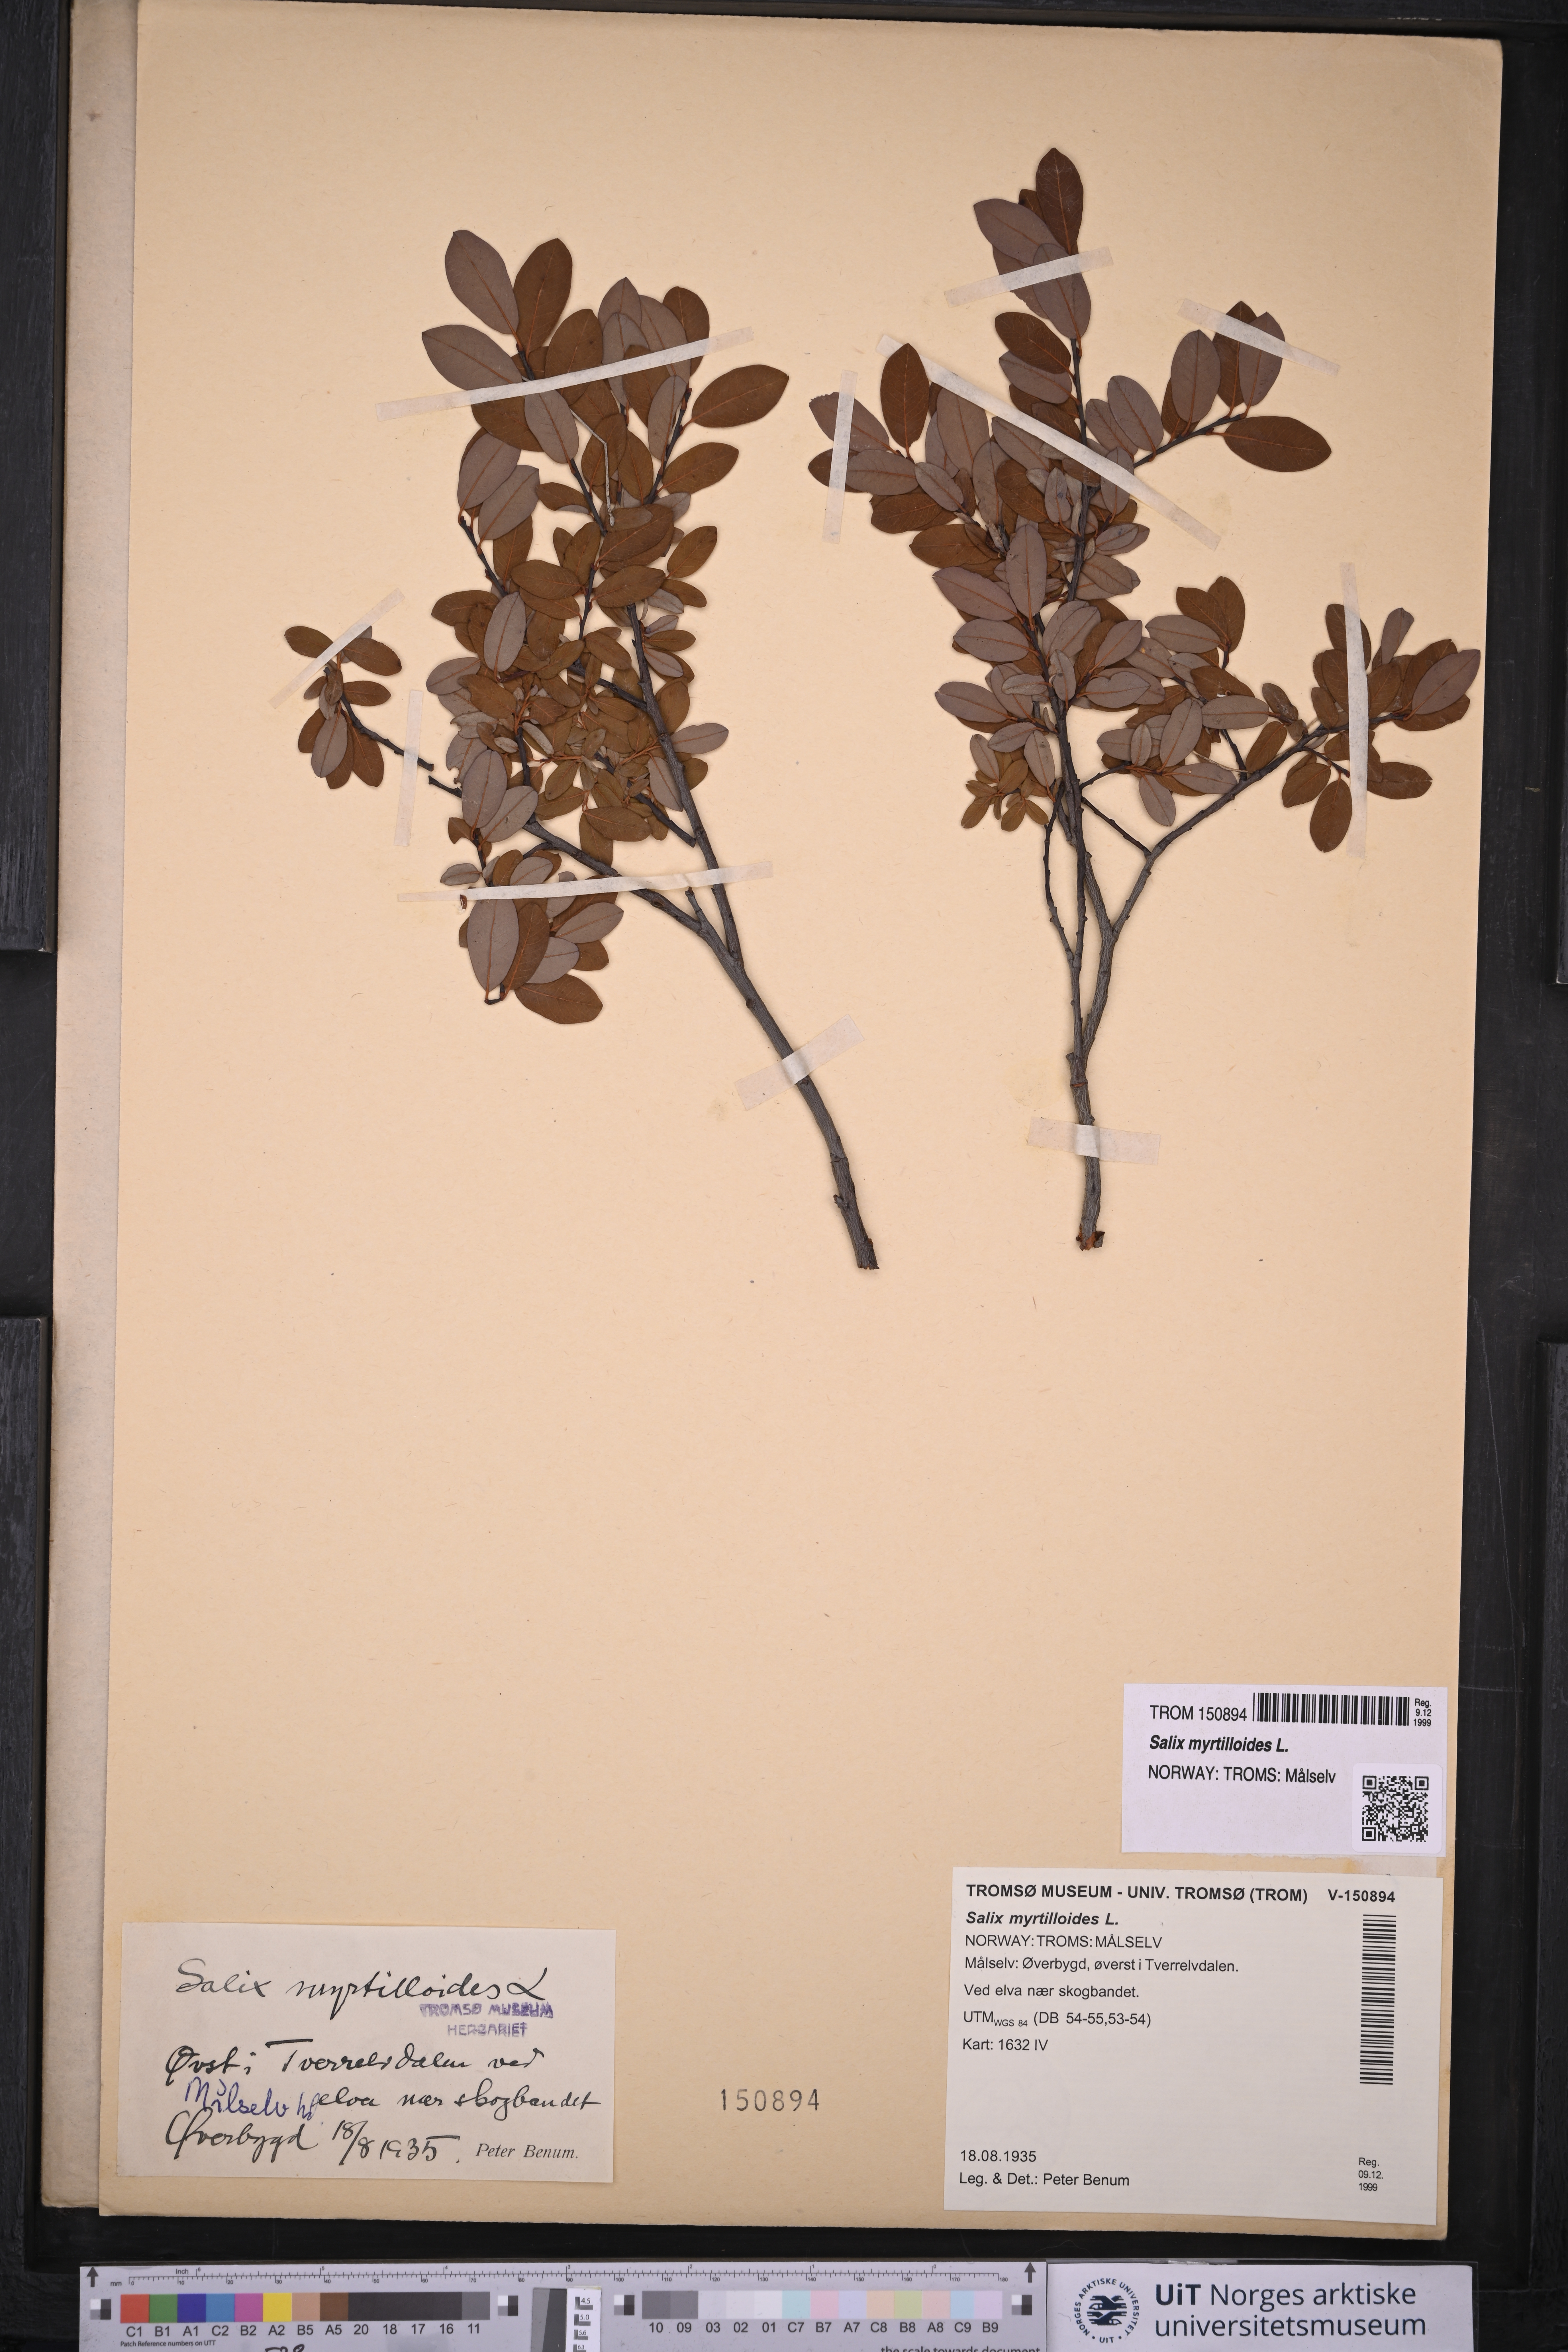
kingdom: Plantae
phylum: Tracheophyta
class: Magnoliopsida
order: Malpighiales
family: Salicaceae
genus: Salix
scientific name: Salix myrtilloides
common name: Myrtle-leaved willow
